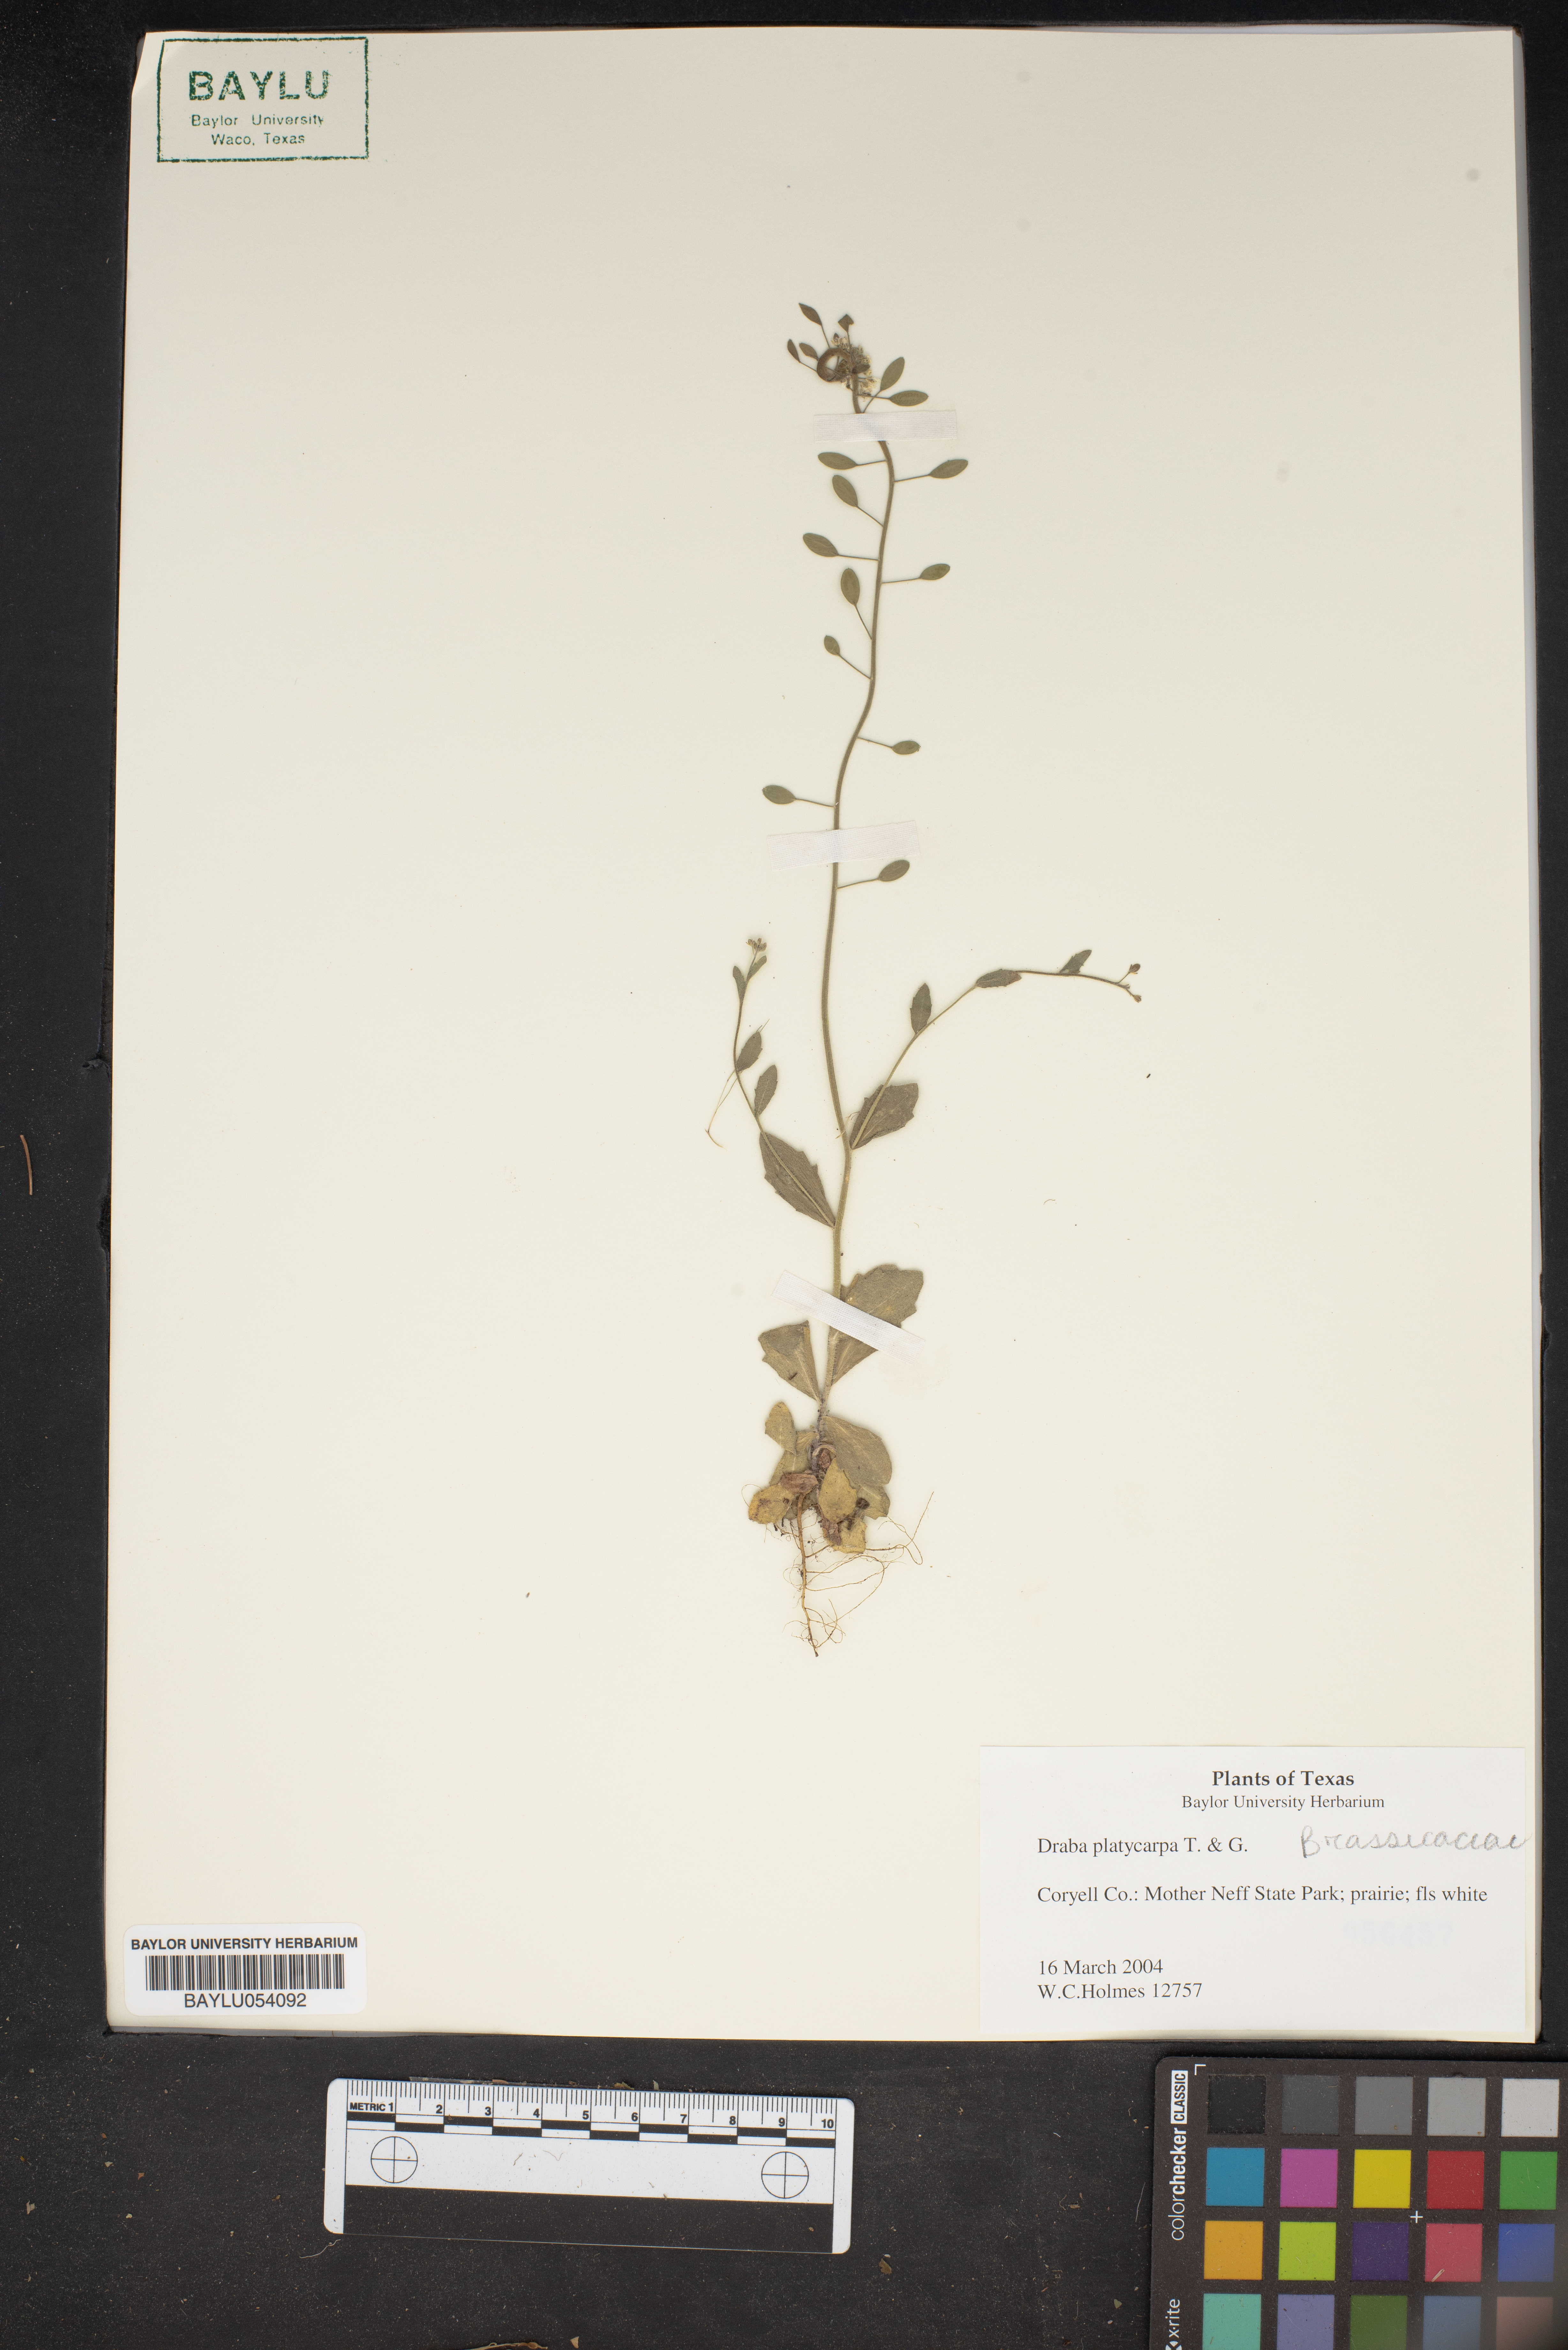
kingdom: Plantae
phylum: Tracheophyta
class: Magnoliopsida
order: Brassicales
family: Brassicaceae
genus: Tomostima
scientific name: Tomostima platycarpa
